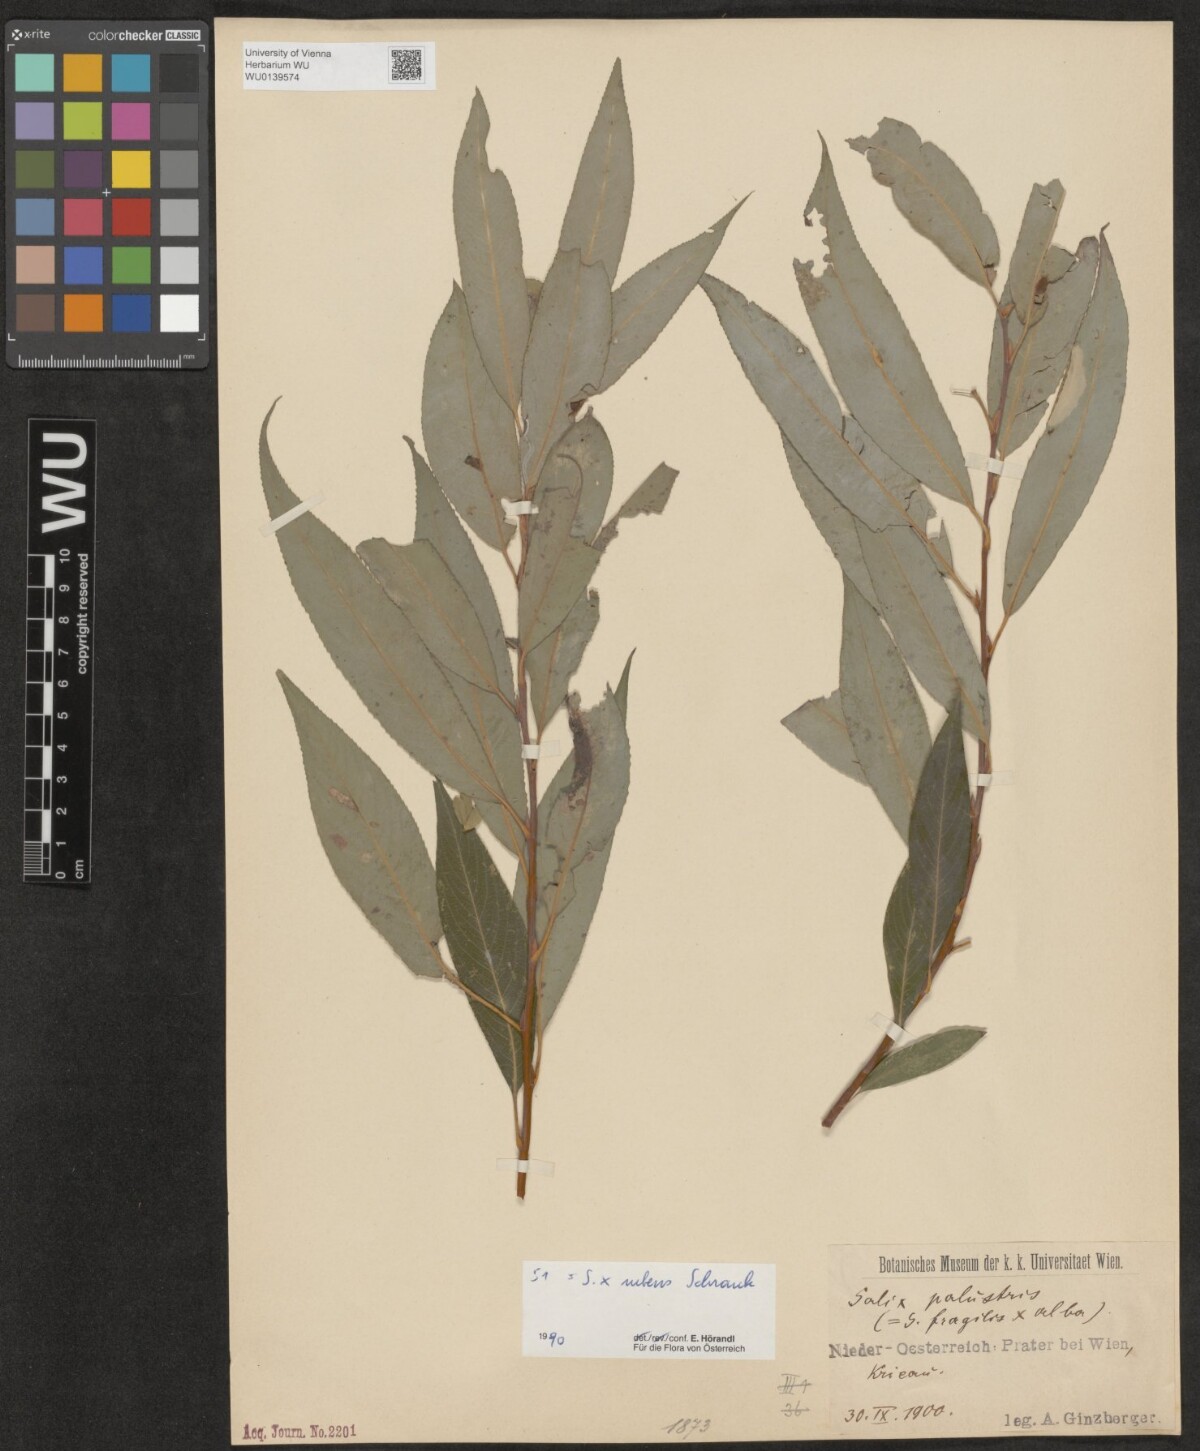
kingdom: Plantae
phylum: Tracheophyta
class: Magnoliopsida
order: Malpighiales
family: Salicaceae
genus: Salix
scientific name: Salix rubens
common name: Hybrid crack willow
